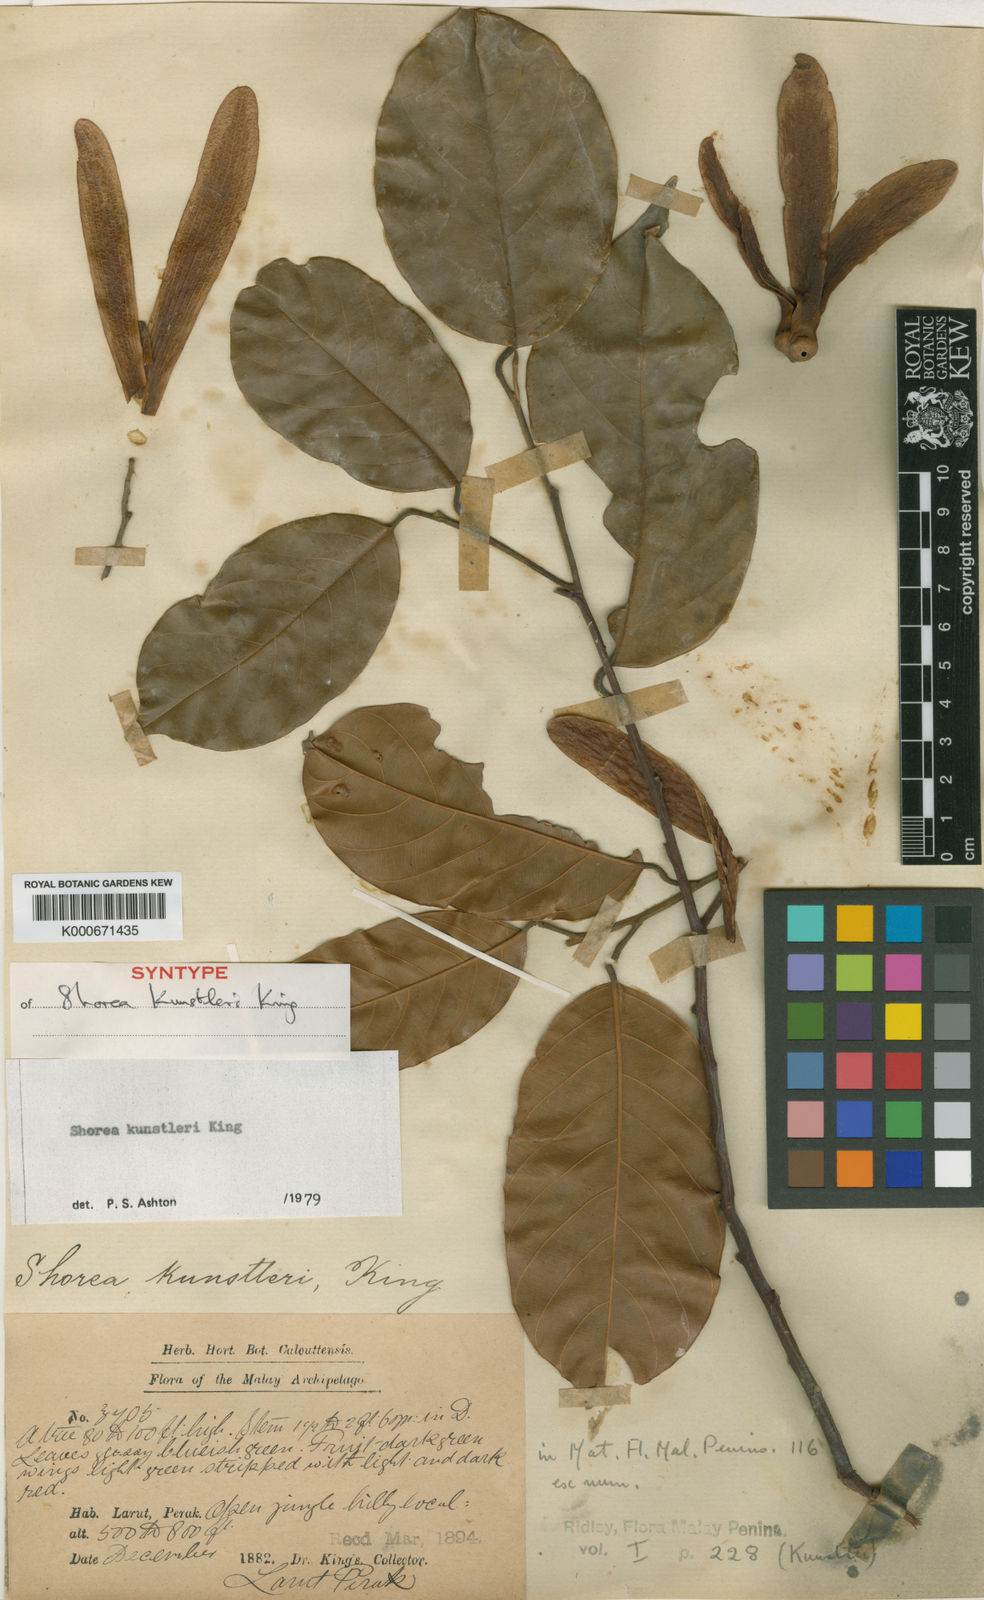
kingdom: Plantae
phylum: Tracheophyta
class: Magnoliopsida
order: Malvales
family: Dipterocarpaceae
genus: Shorea
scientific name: Shorea kunstleri
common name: Red balau
